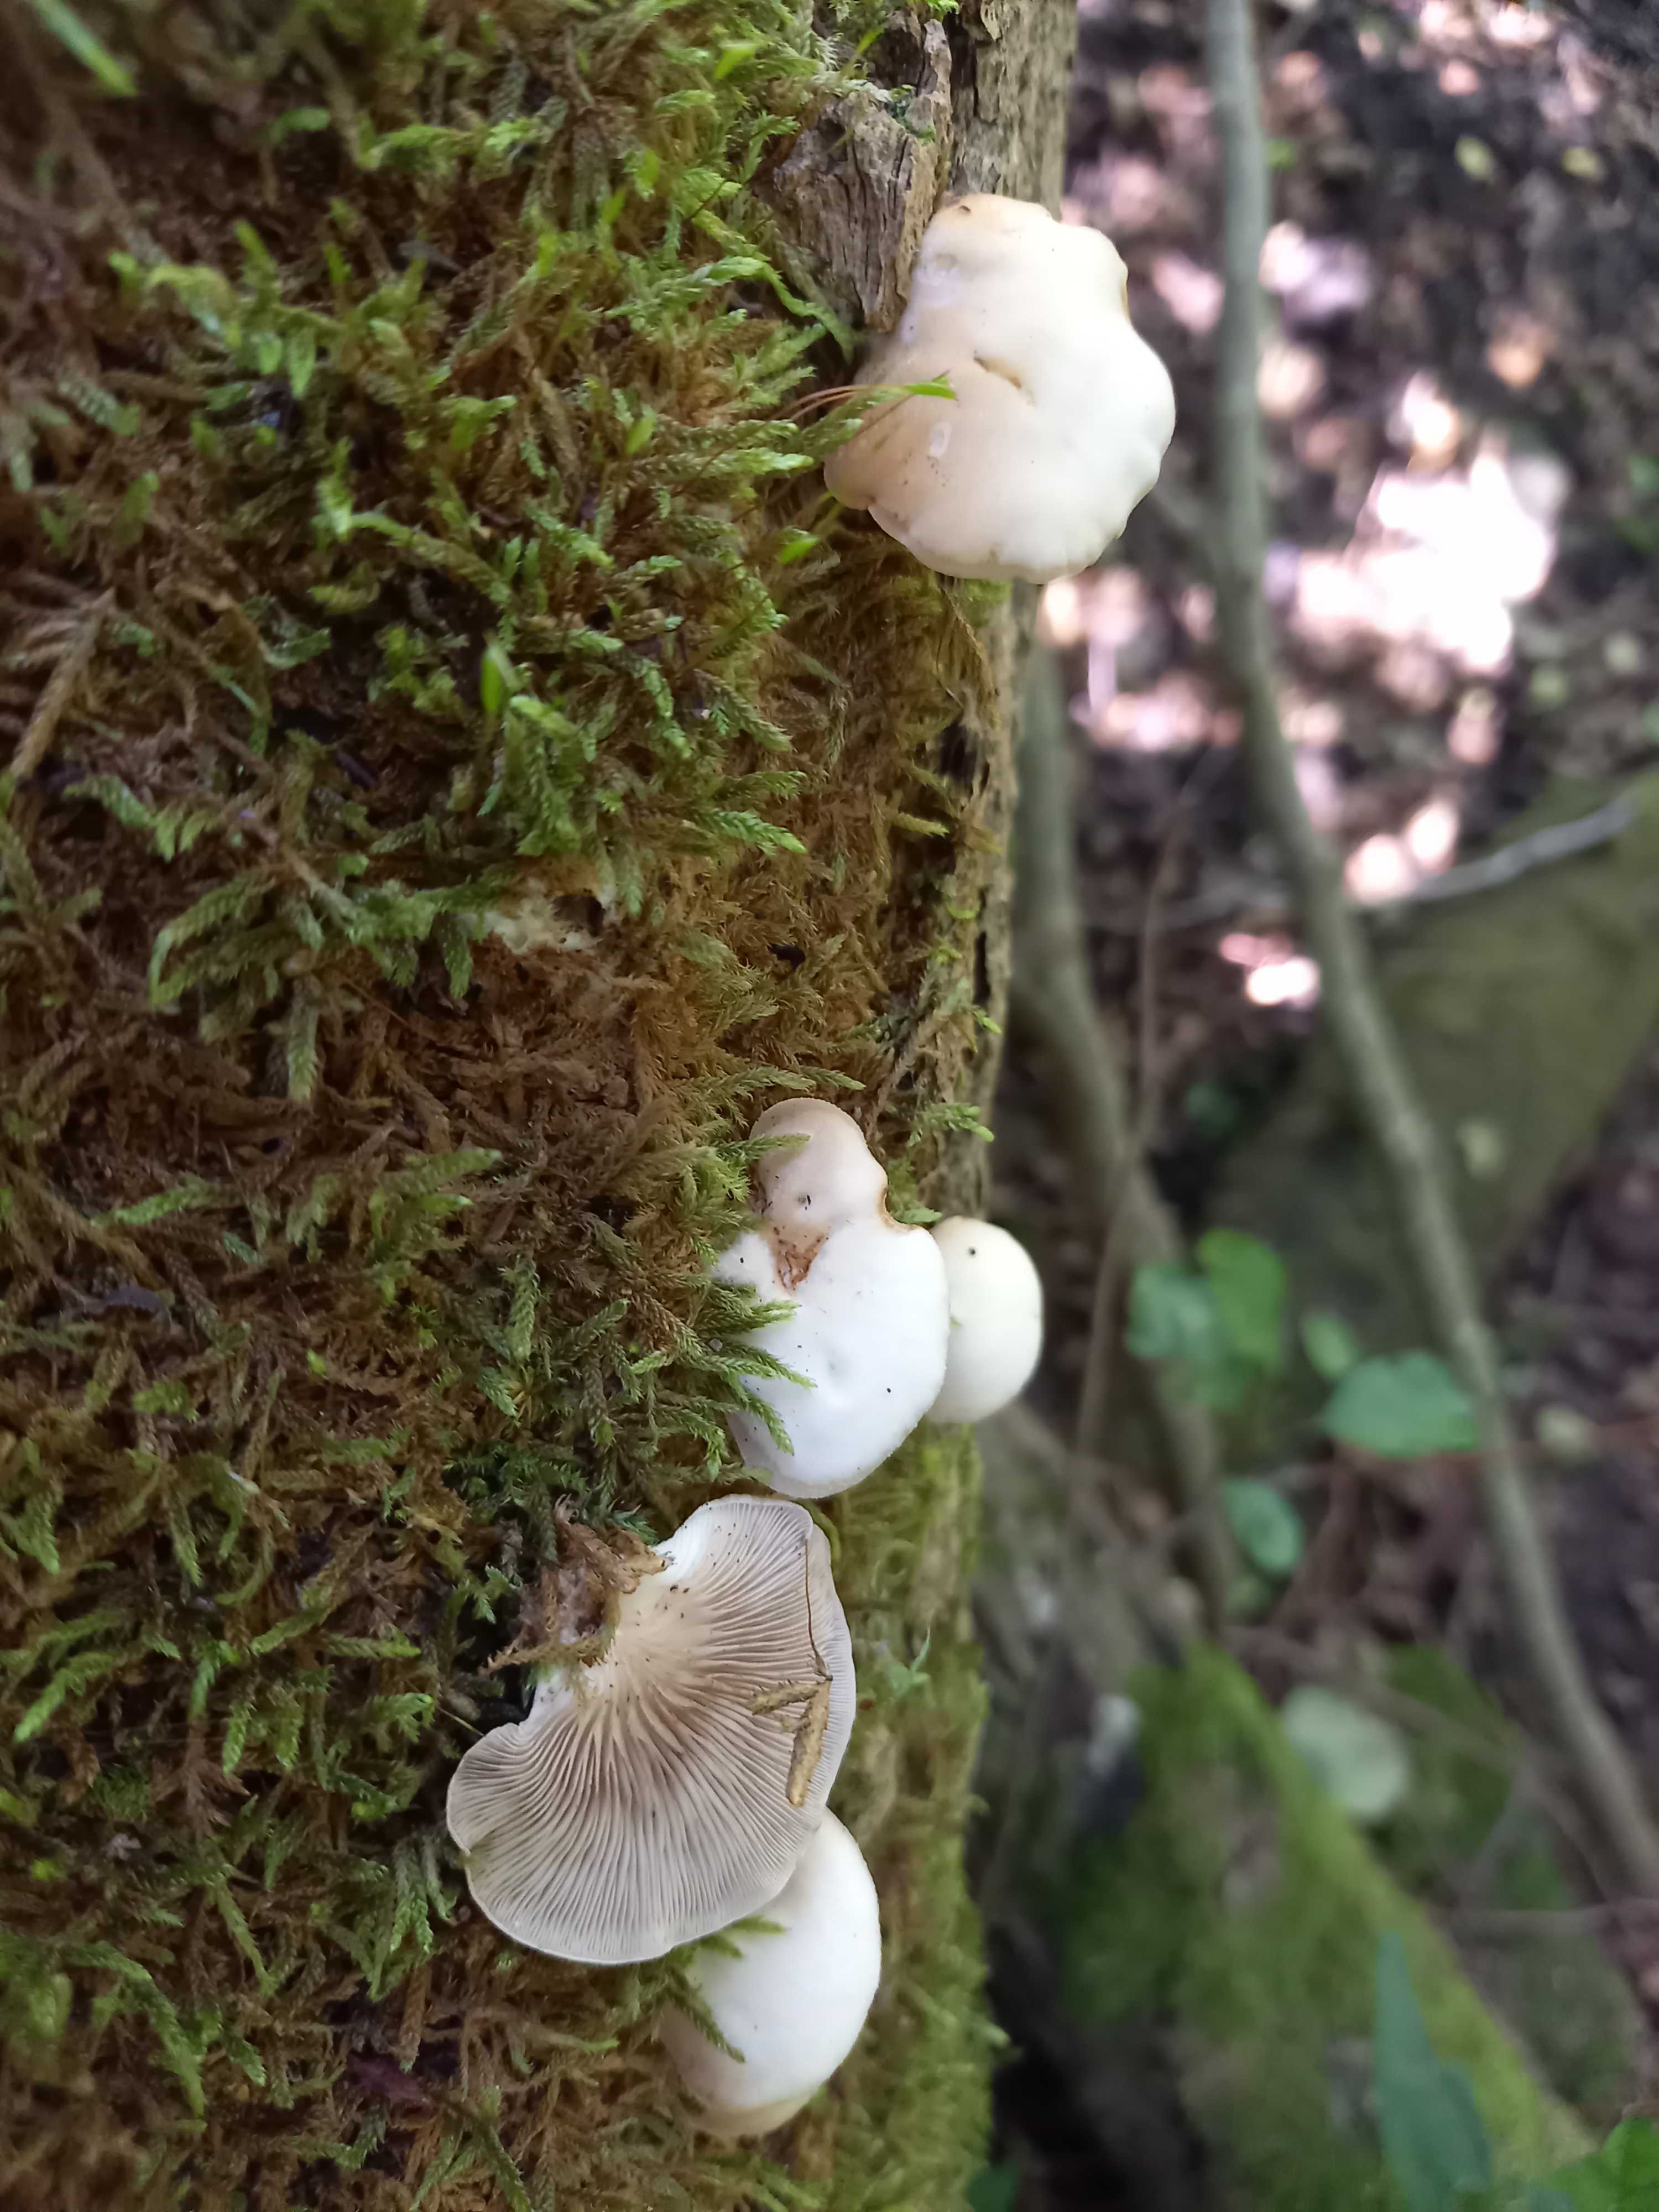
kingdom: Fungi
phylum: Basidiomycota
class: Agaricomycetes
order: Agaricales
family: Crepidotaceae
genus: Crepidotus
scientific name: Crepidotus mollis
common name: blød muslingesvamp
